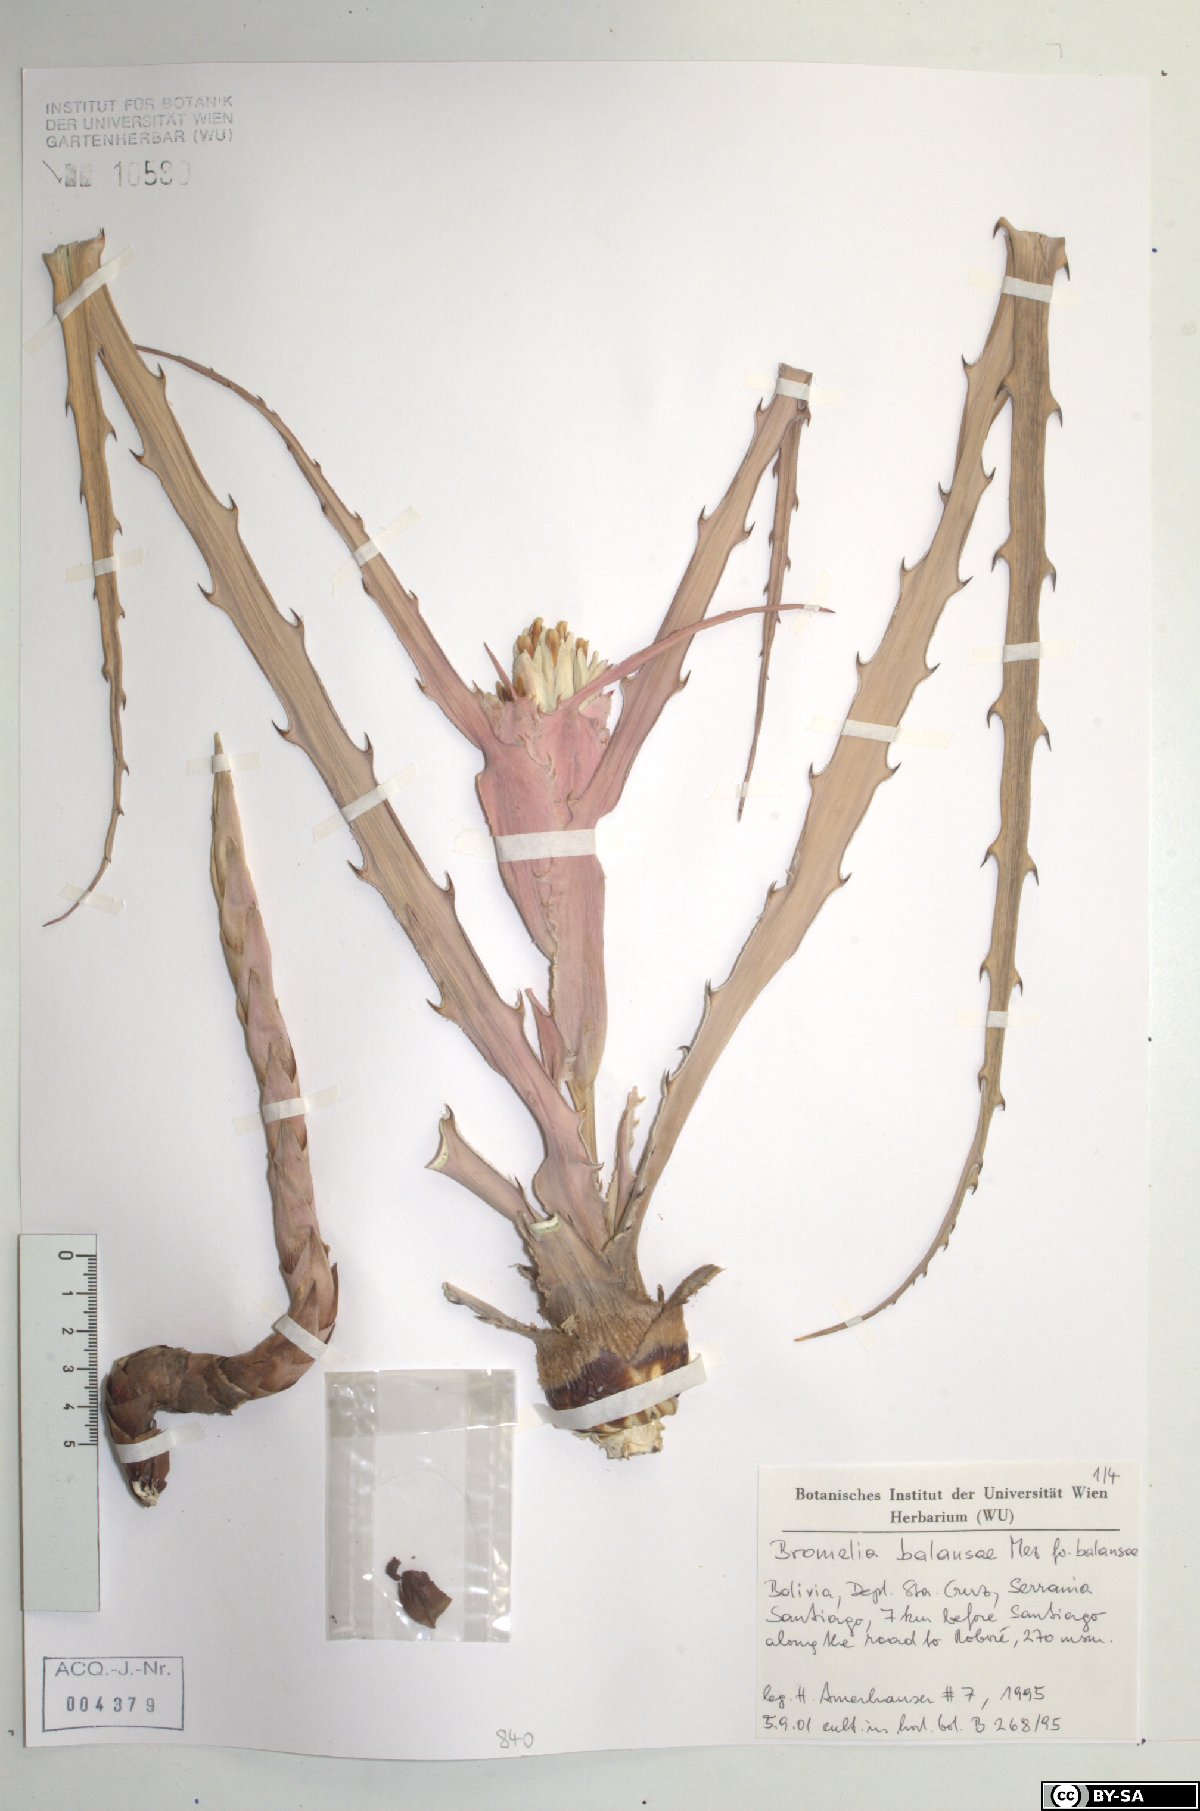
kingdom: Plantae
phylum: Tracheophyta
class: Liliopsida
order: Poales
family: Bromeliaceae
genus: Bromelia
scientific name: Bromelia balansae
